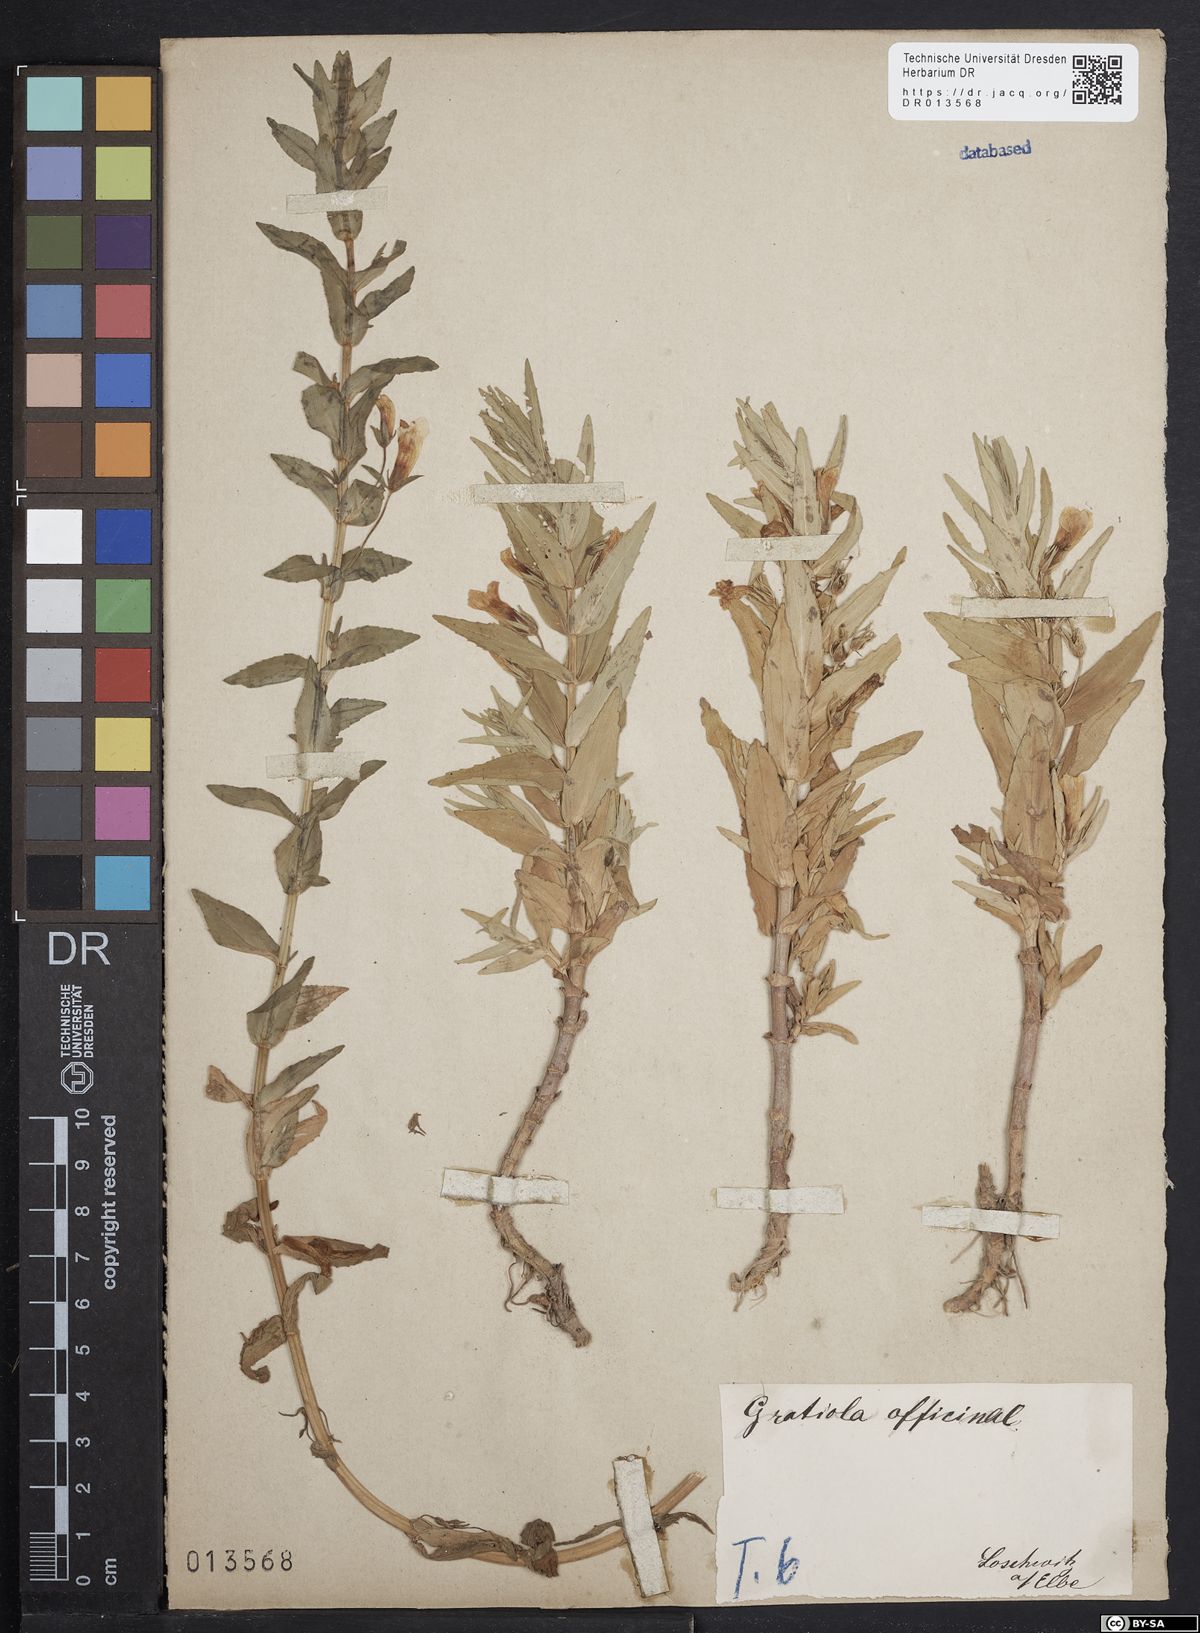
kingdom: Plantae
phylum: Tracheophyta
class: Magnoliopsida
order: Lamiales
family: Plantaginaceae
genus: Gratiola
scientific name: Gratiola officinalis
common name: Gratiola
